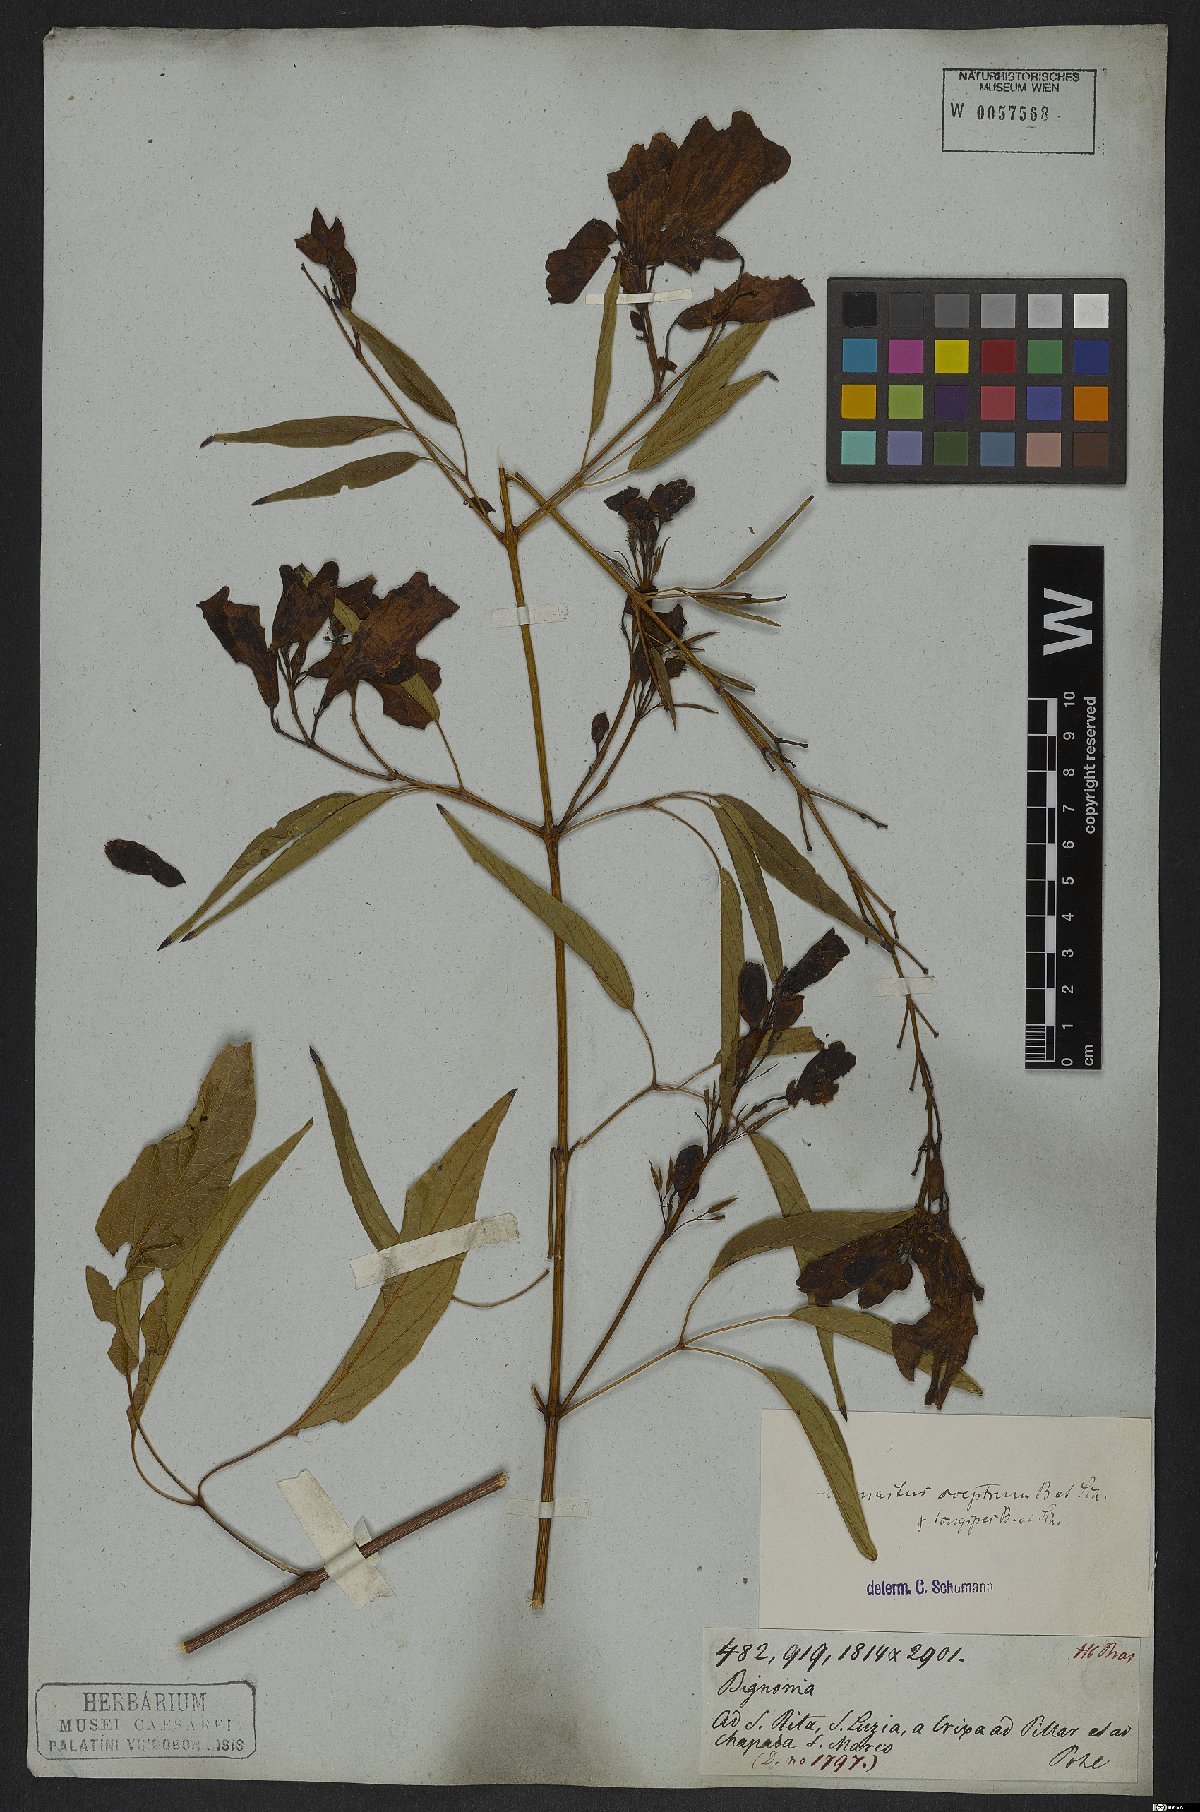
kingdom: Plantae
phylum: Tracheophyta
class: Magnoliopsida
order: Lamiales
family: Bignoniaceae
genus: Cuspidaria
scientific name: Cuspidaria sceptrum
